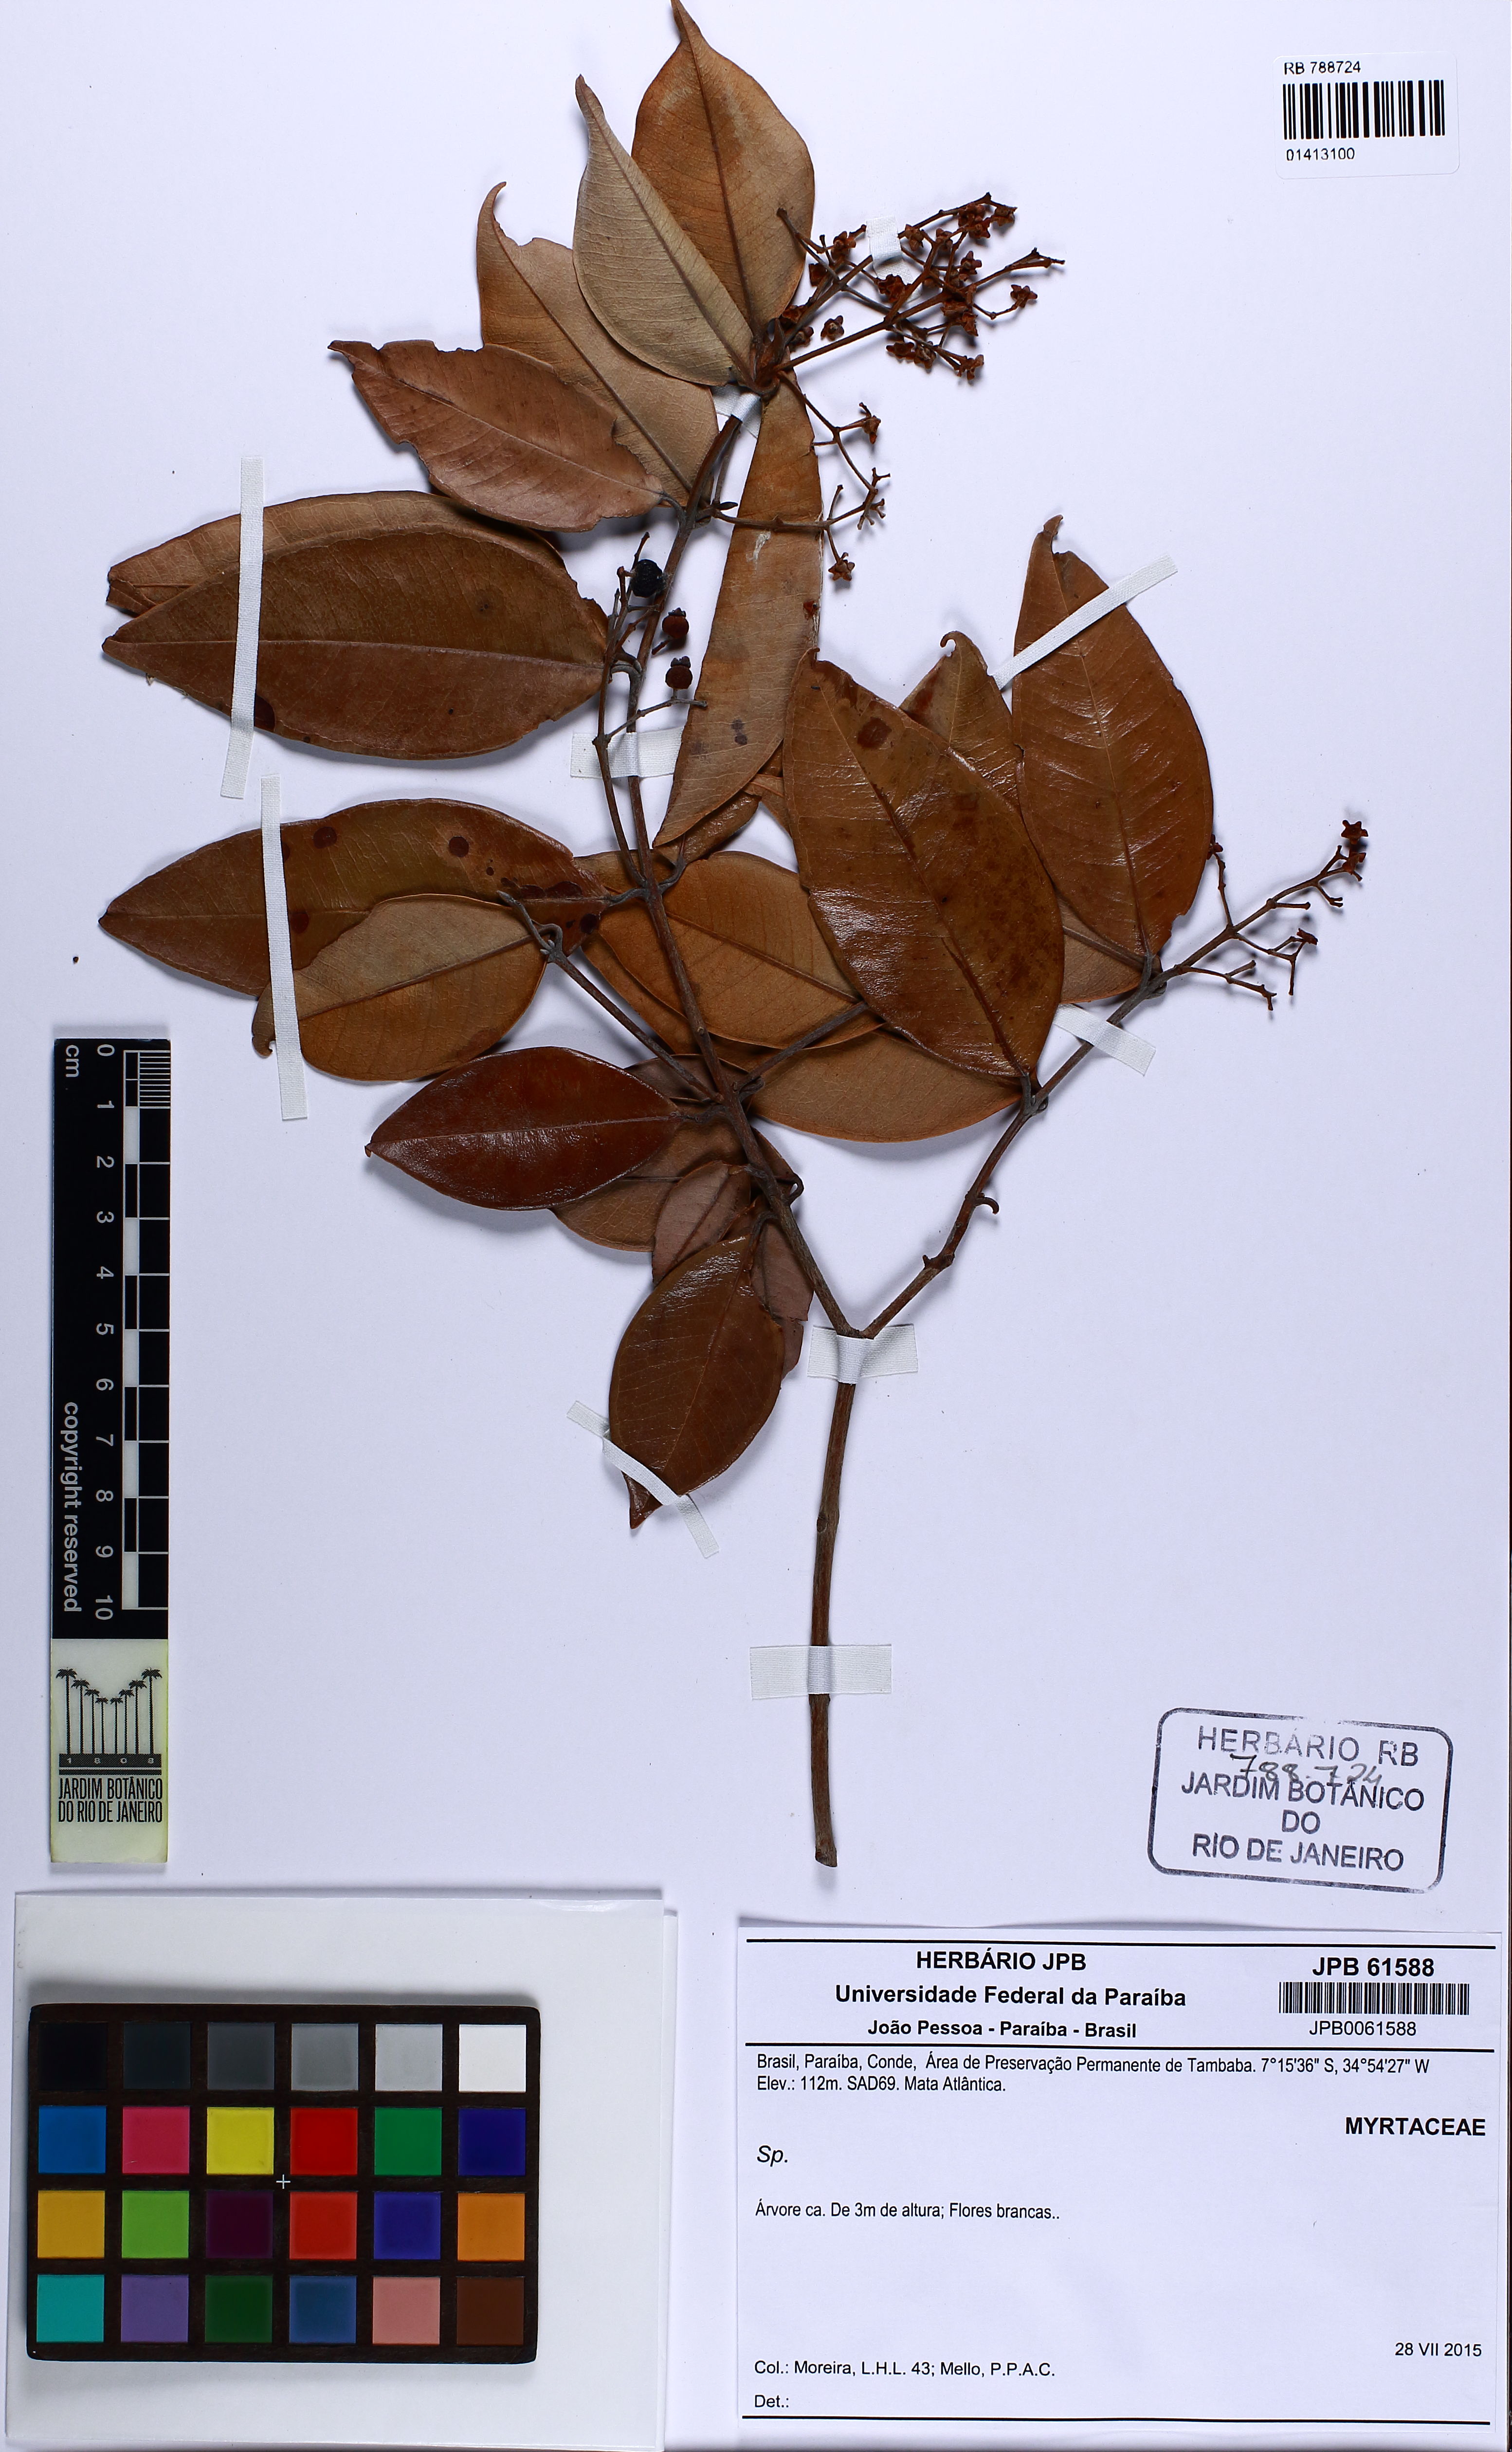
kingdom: Plantae
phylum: Tracheophyta
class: Magnoliopsida
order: Myrtales
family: Myrtaceae
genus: Myrcia
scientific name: Myrcia bergiana
